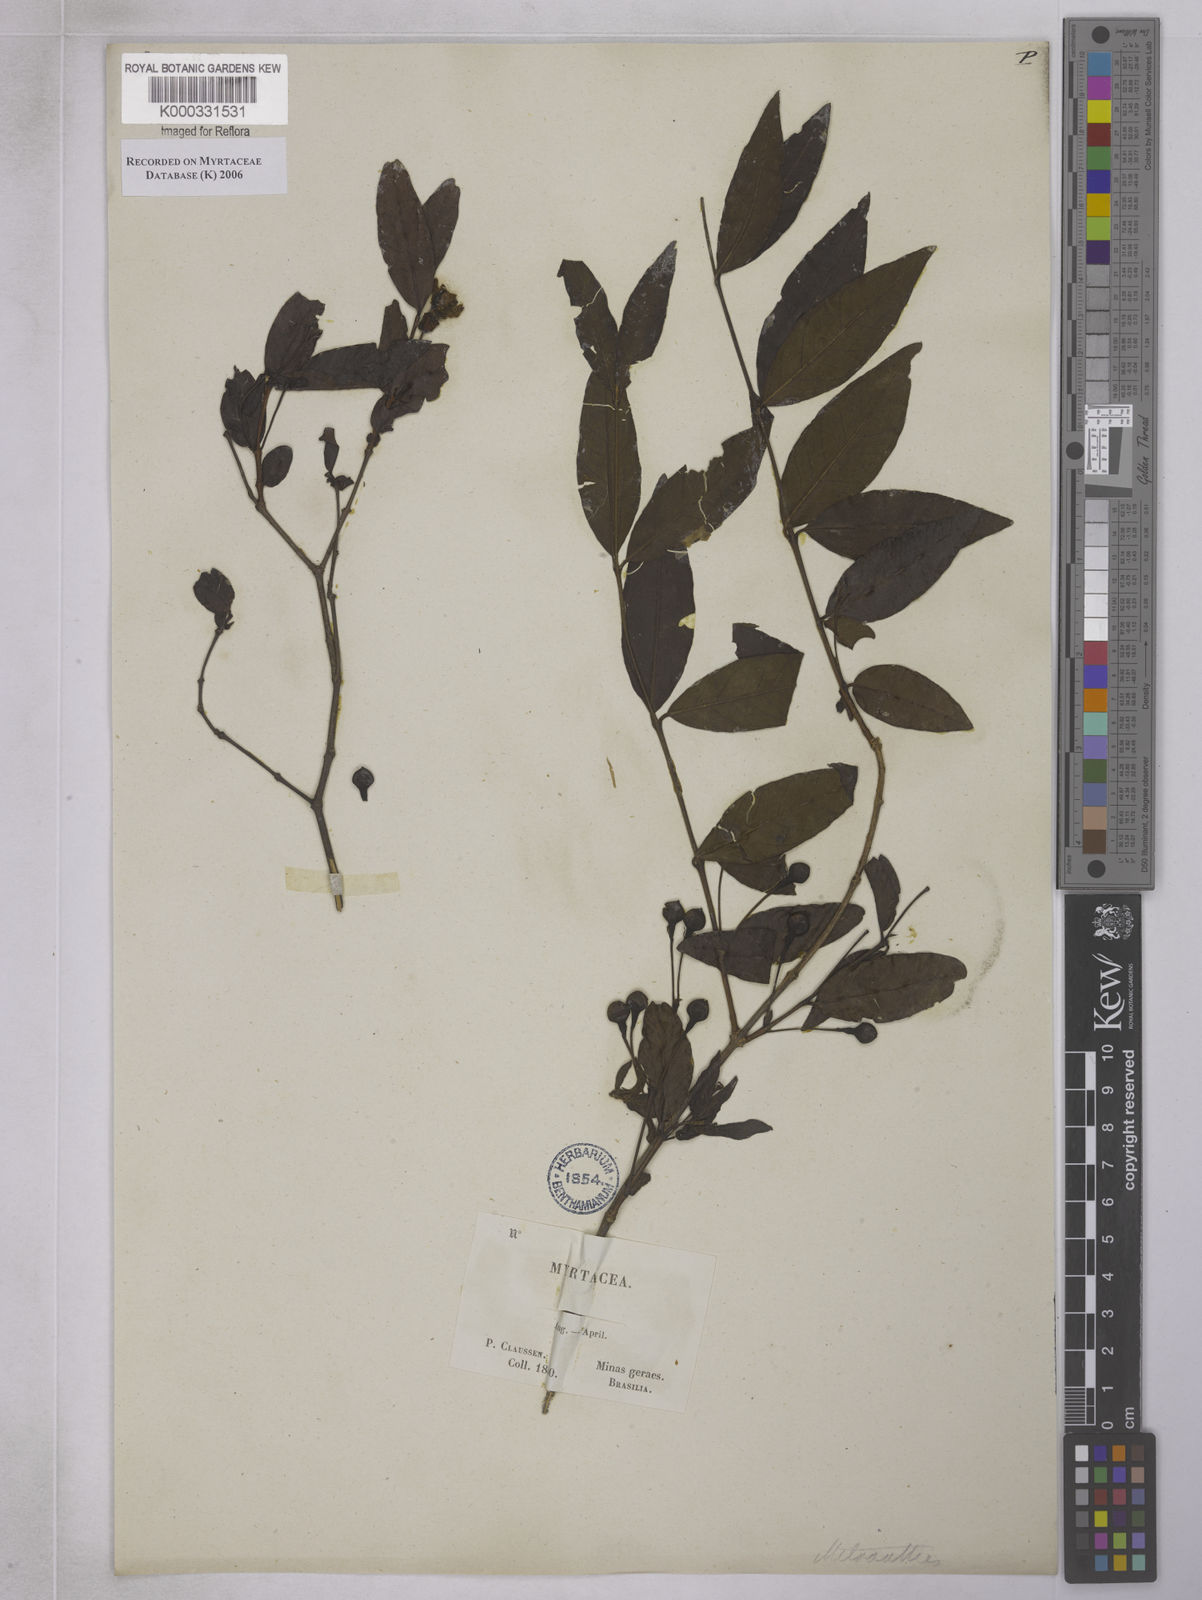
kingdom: Plantae
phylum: Tracheophyta
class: Magnoliopsida
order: Myrtales
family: Myrtaceae
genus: Psidium
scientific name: Psidium
